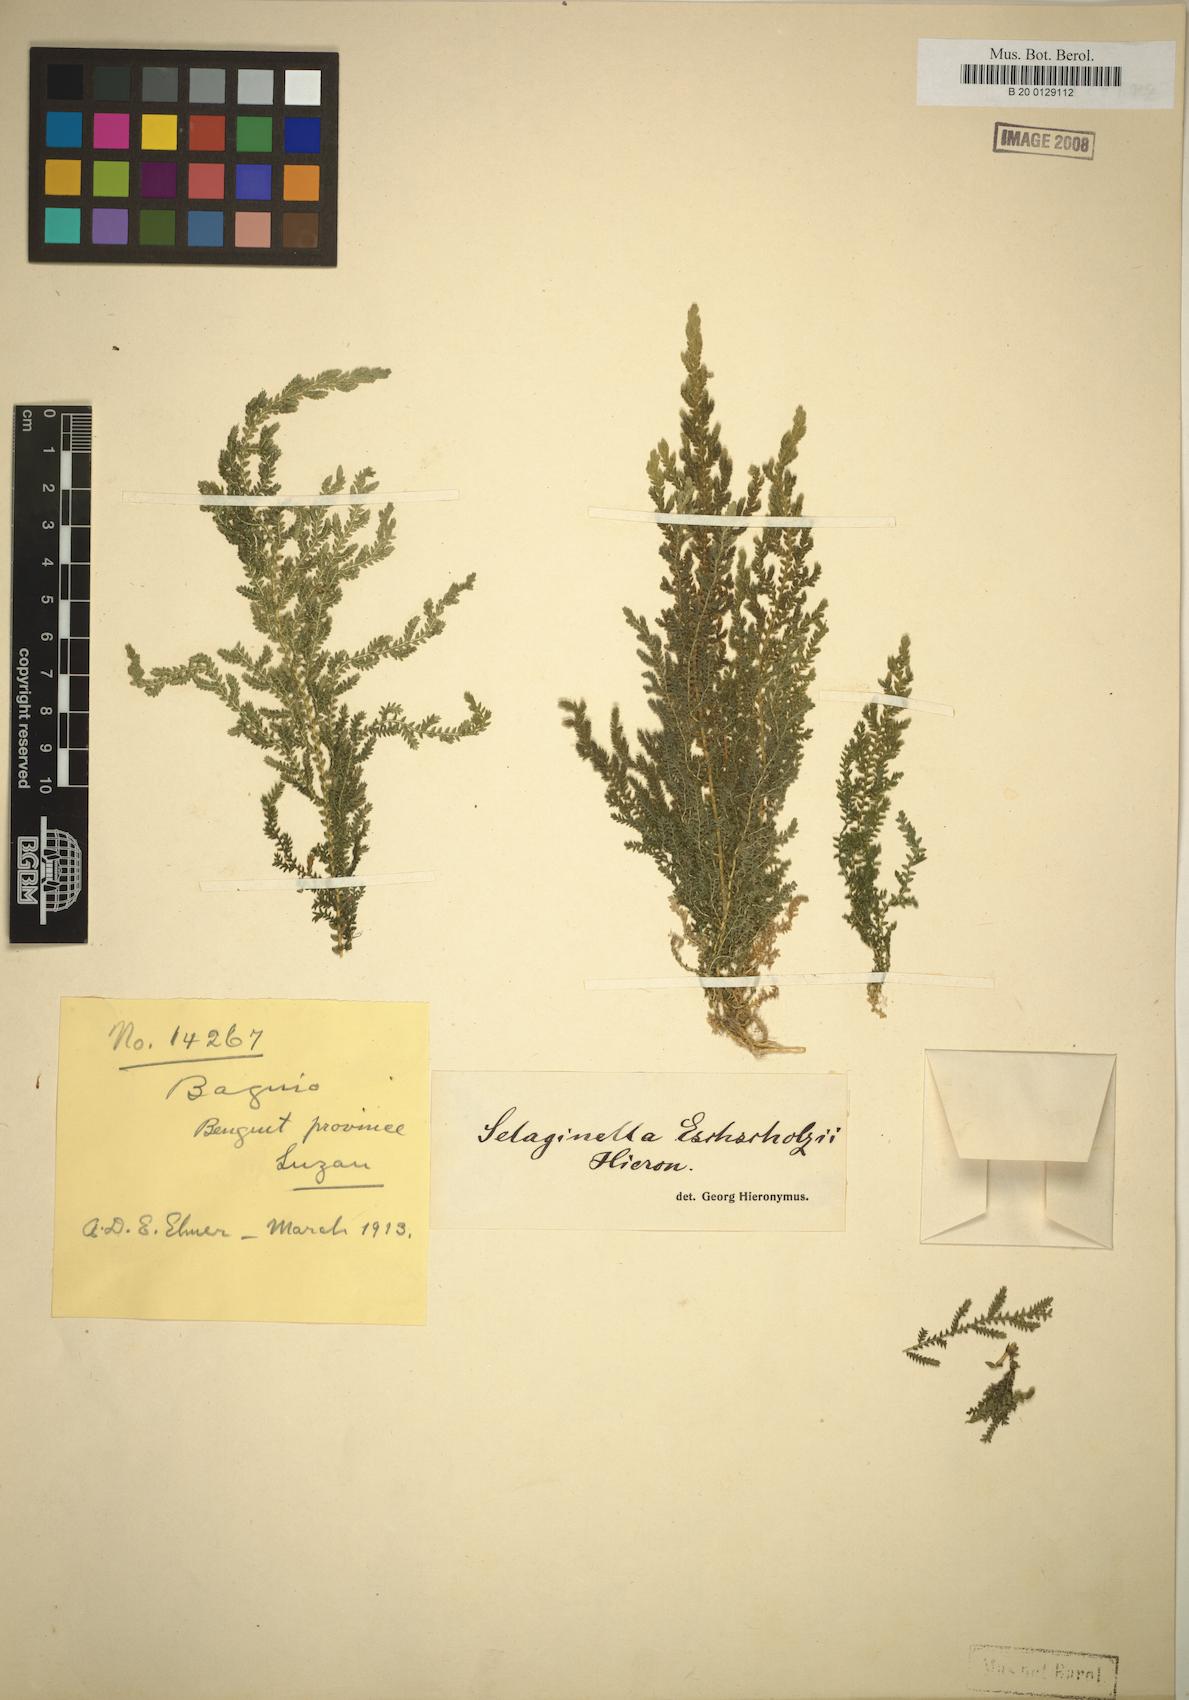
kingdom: Plantae
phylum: Tracheophyta
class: Lycopodiopsida
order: Selaginellales
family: Selaginellaceae
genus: Selaginella
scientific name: Selaginella eschscholzii
